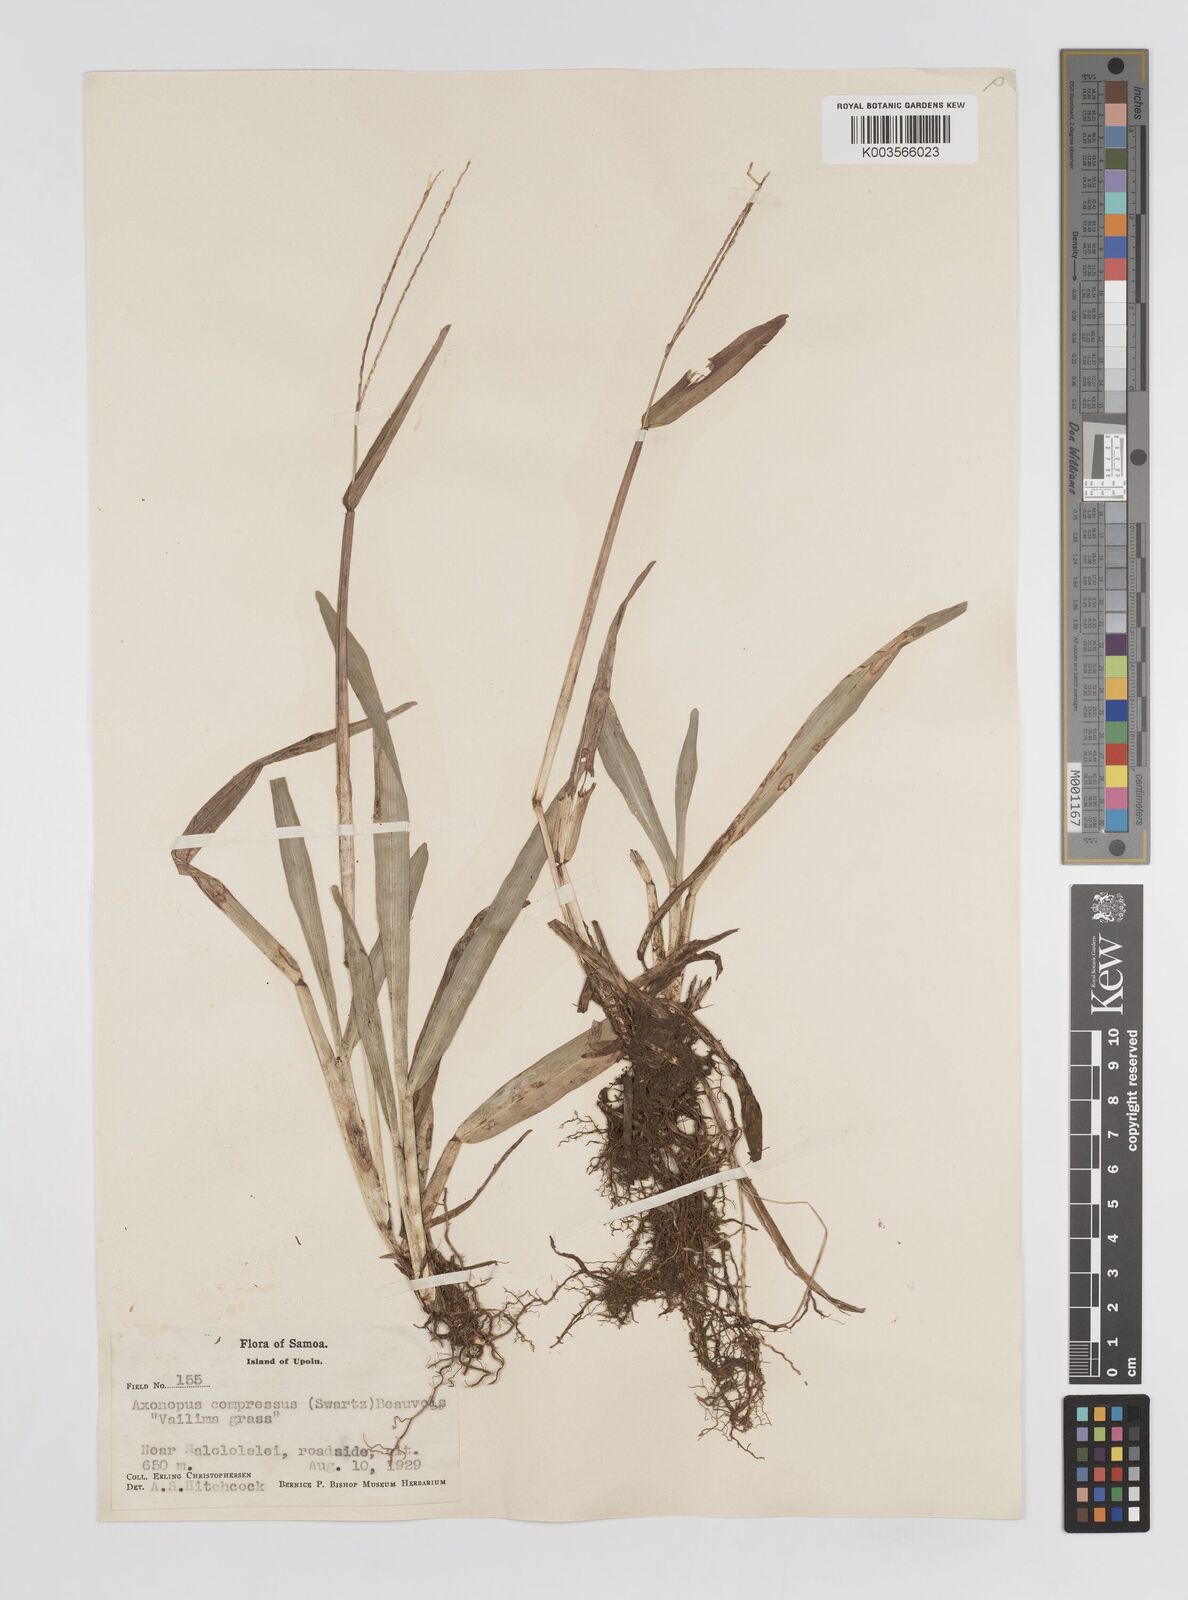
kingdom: Plantae
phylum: Tracheophyta
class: Liliopsida
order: Poales
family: Poaceae
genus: Axonopus
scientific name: Axonopus compressus
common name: American carpet grass
